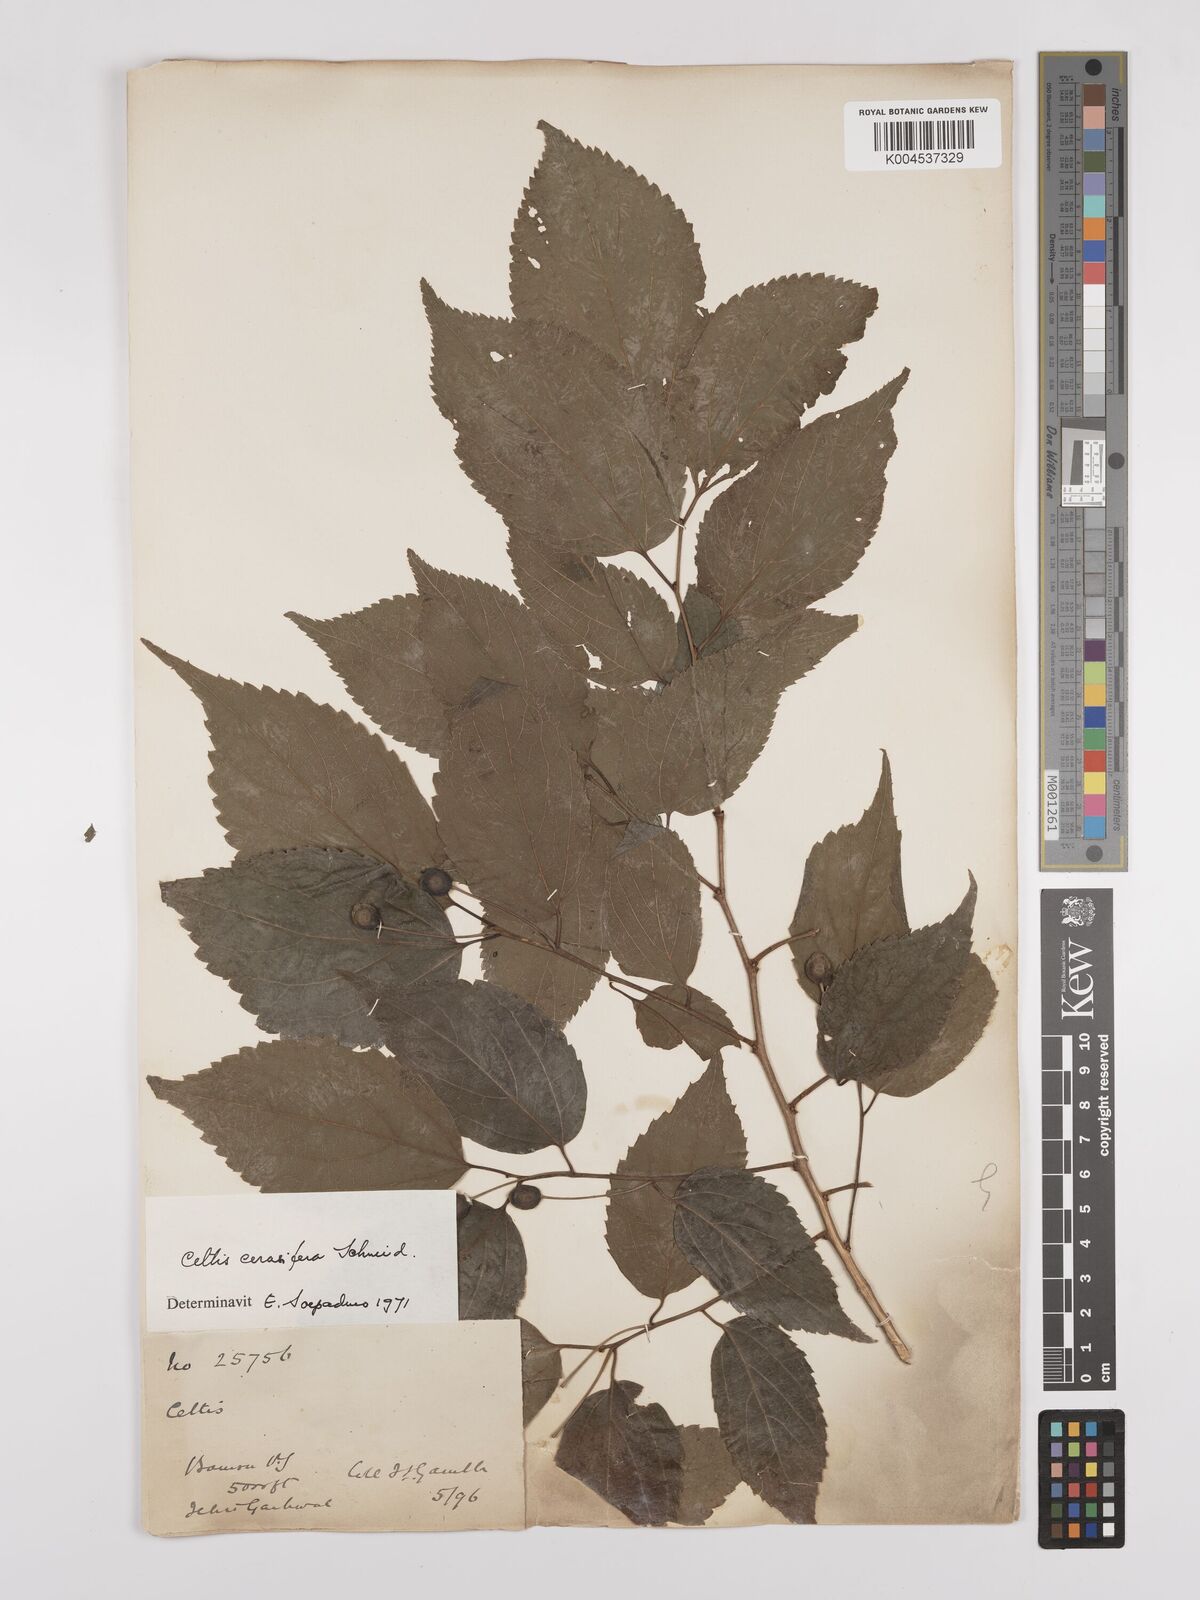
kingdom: Plantae
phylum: Tracheophyta
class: Magnoliopsida
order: Rosales
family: Cannabaceae
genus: Celtis
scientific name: Celtis cerasifera
